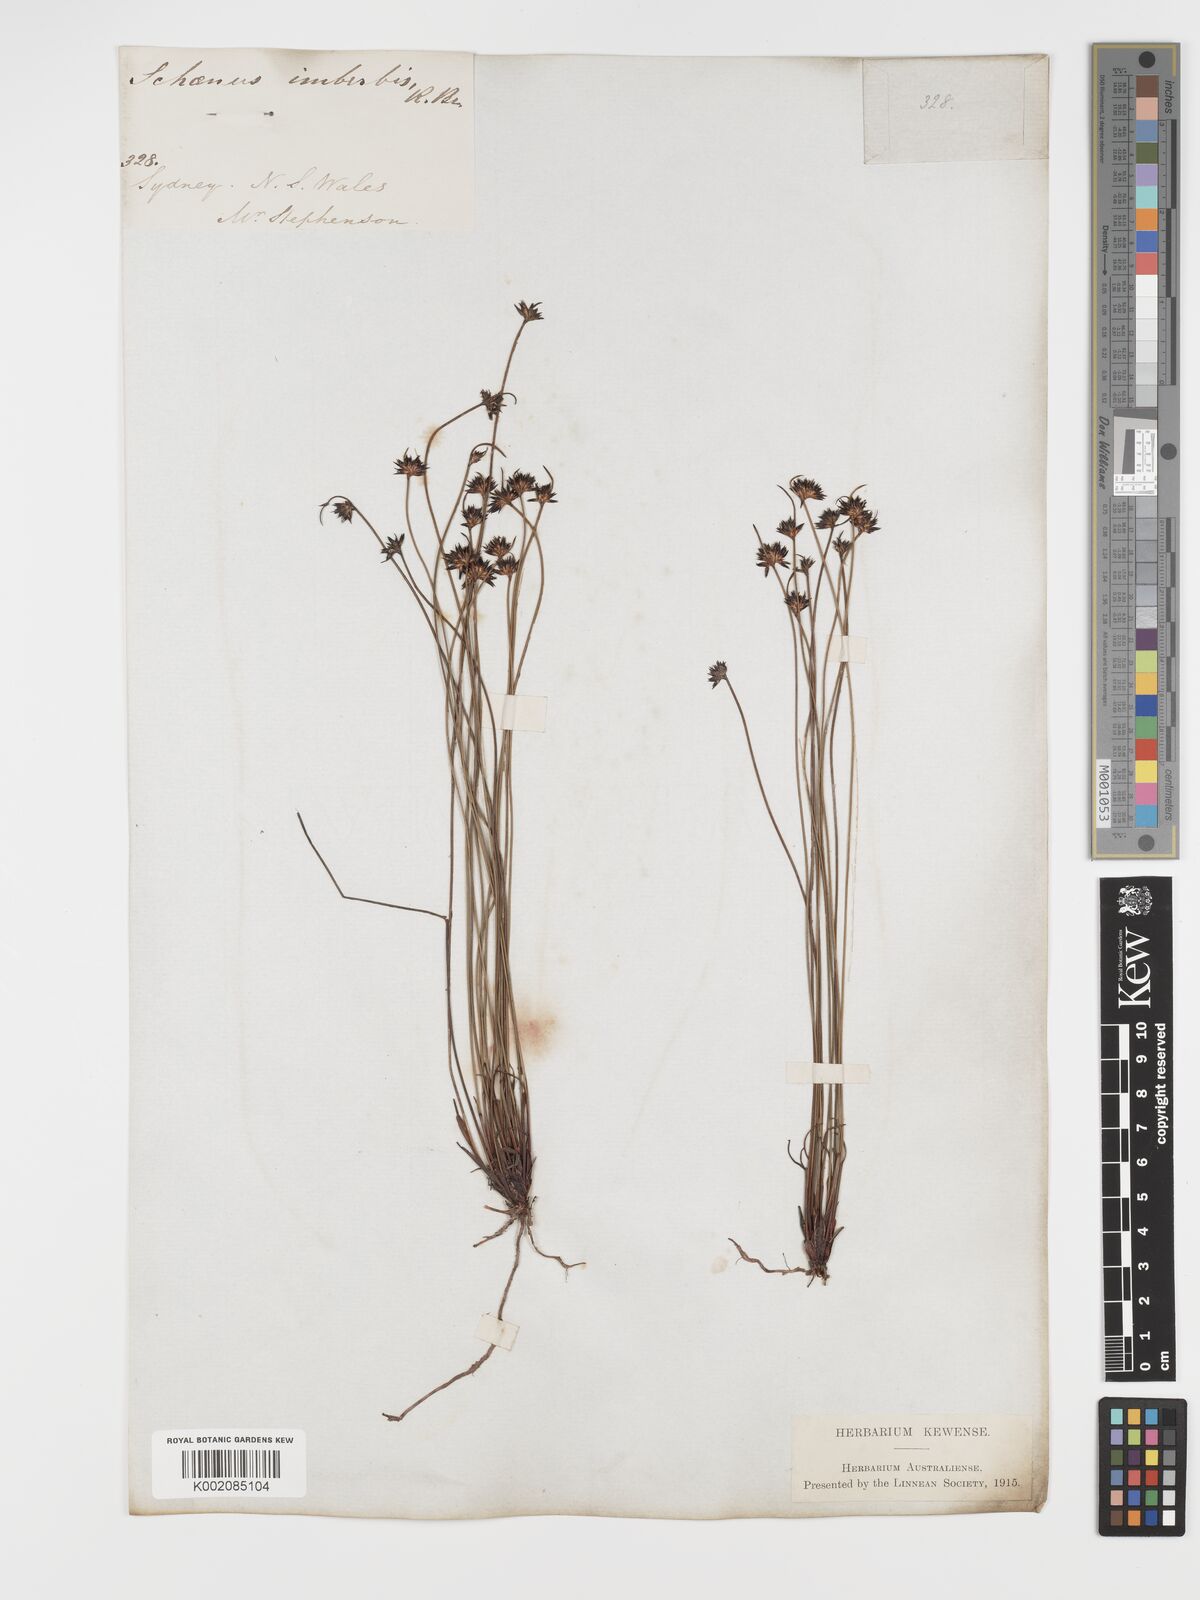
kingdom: Plantae
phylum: Tracheophyta
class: Liliopsida
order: Poales
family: Cyperaceae
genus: Schoenus
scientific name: Schoenus imberbis
